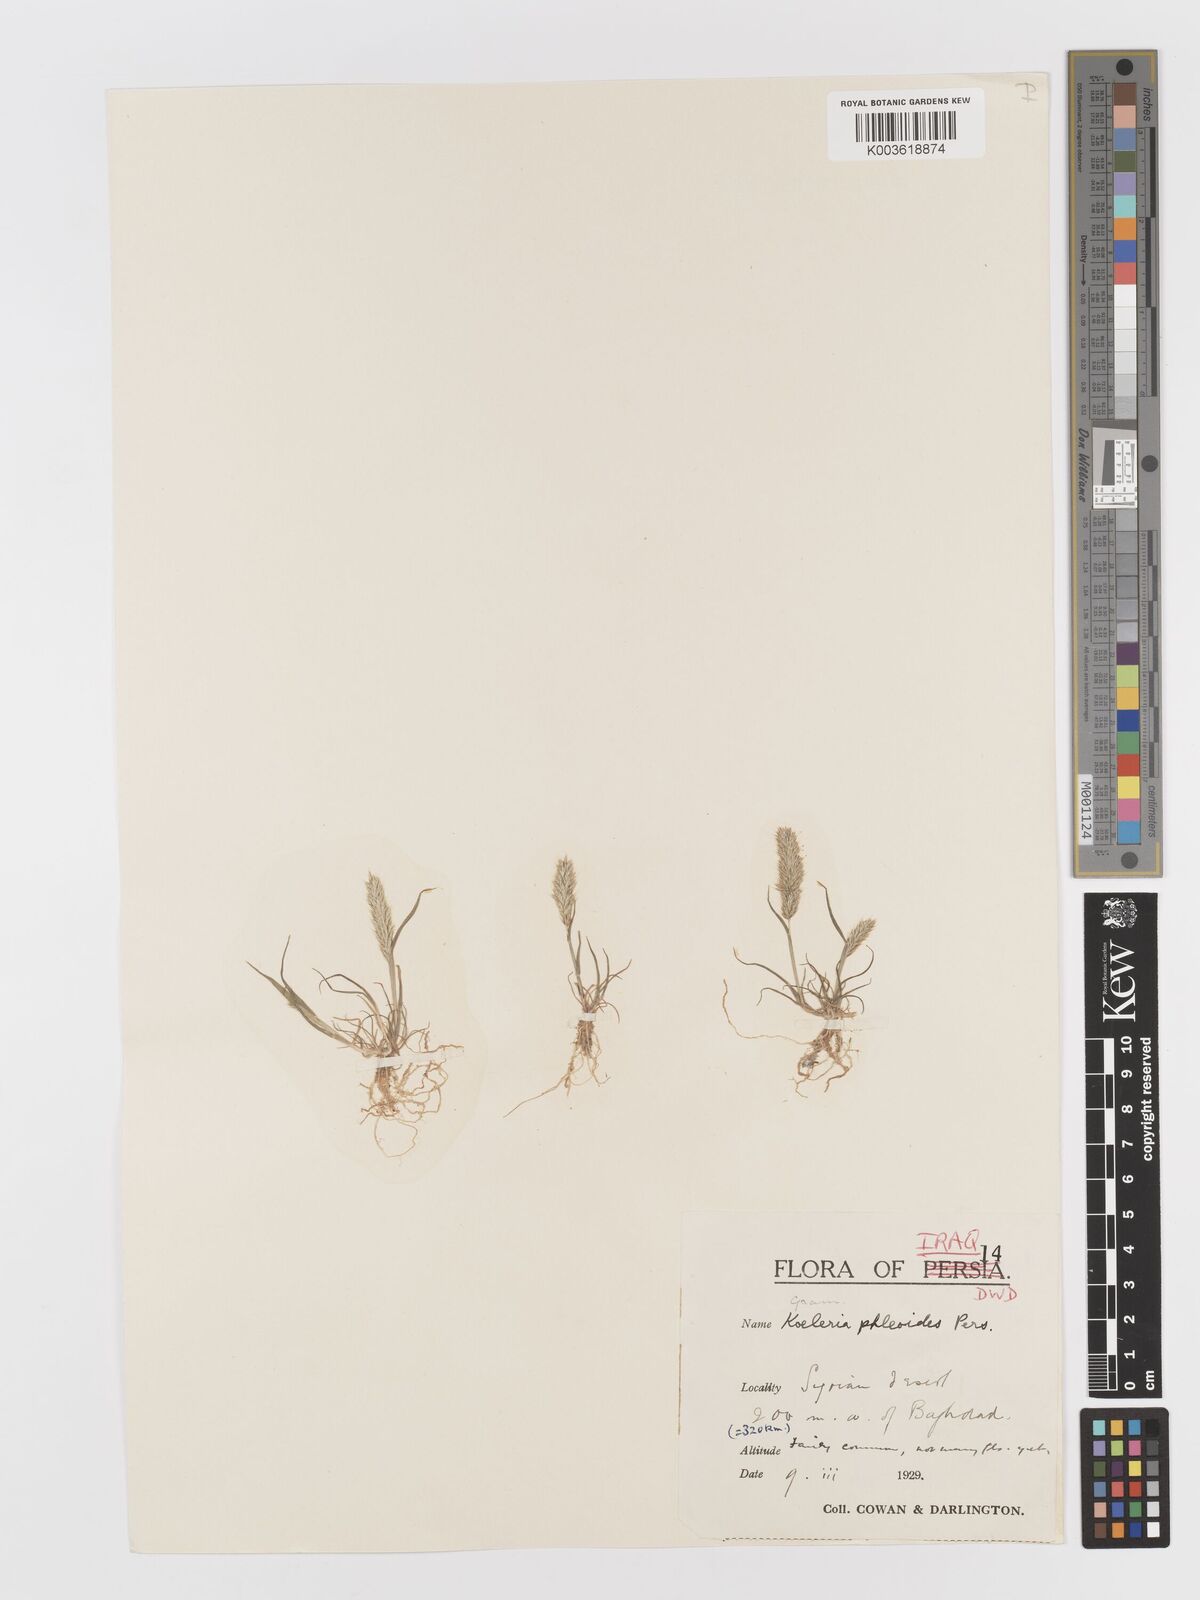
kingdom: Plantae
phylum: Tracheophyta
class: Liliopsida
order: Poales
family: Poaceae
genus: Rostraria
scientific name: Rostraria cristata
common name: Mediterranean hair-grass
